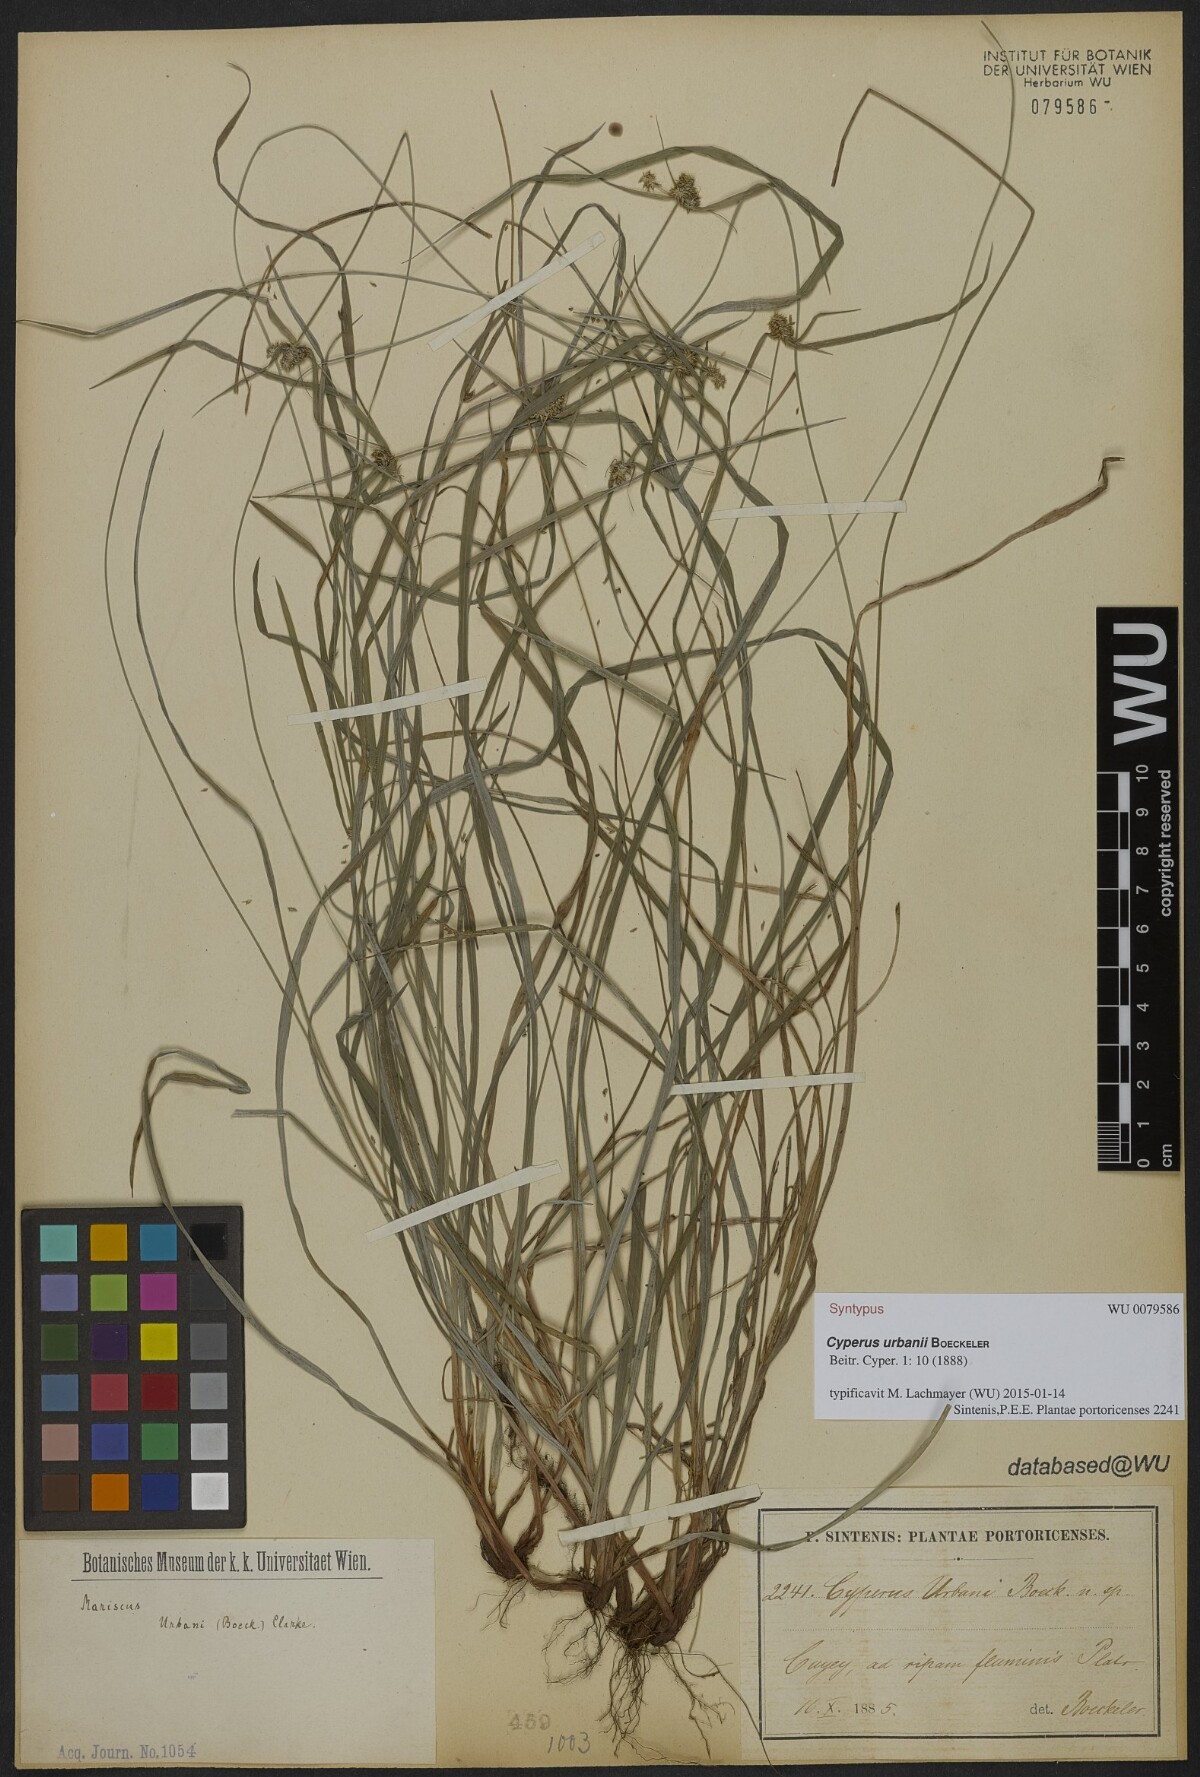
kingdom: Plantae
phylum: Tracheophyta
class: Liliopsida
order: Poales
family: Cyperaceae
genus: Cyperus
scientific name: Cyperus urbani
